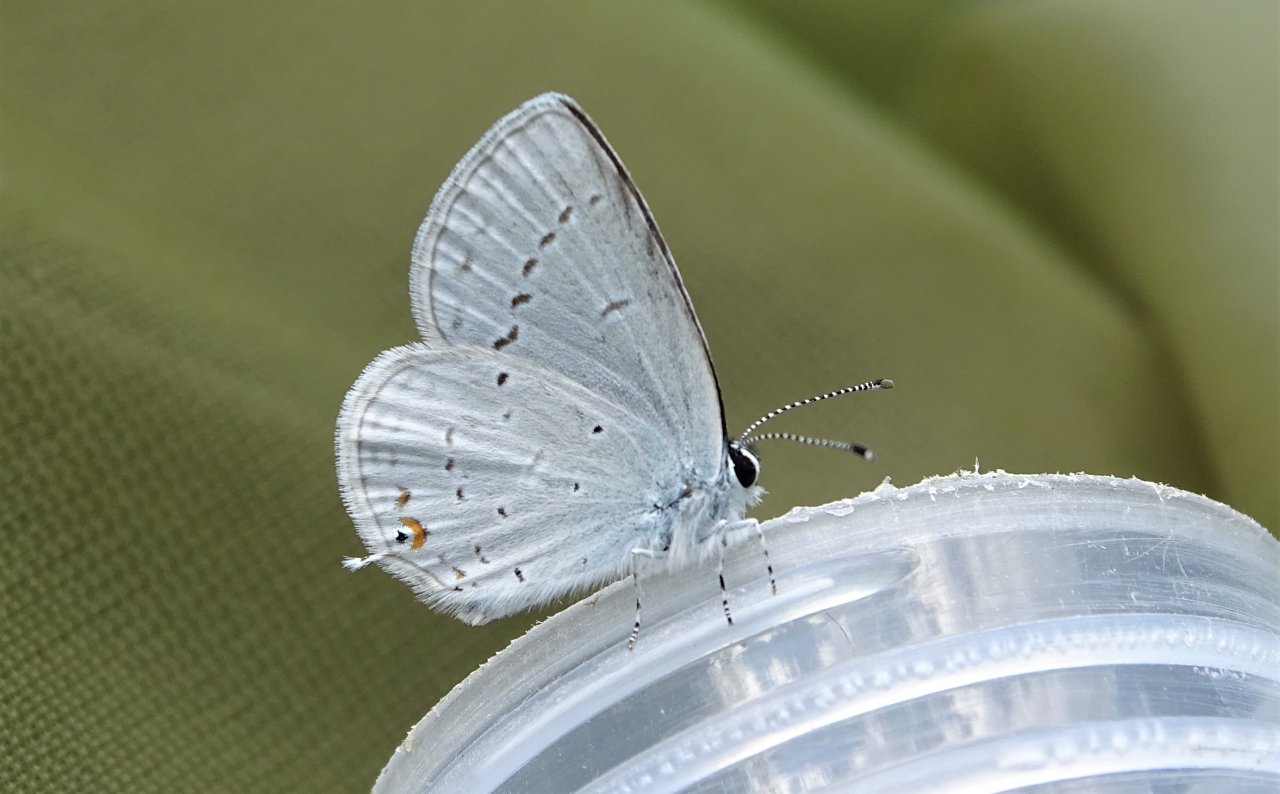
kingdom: Animalia
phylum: Arthropoda
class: Insecta
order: Lepidoptera
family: Lycaenidae
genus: Elkalyce
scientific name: Elkalyce amyntula
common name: Western Tailed-Blue
